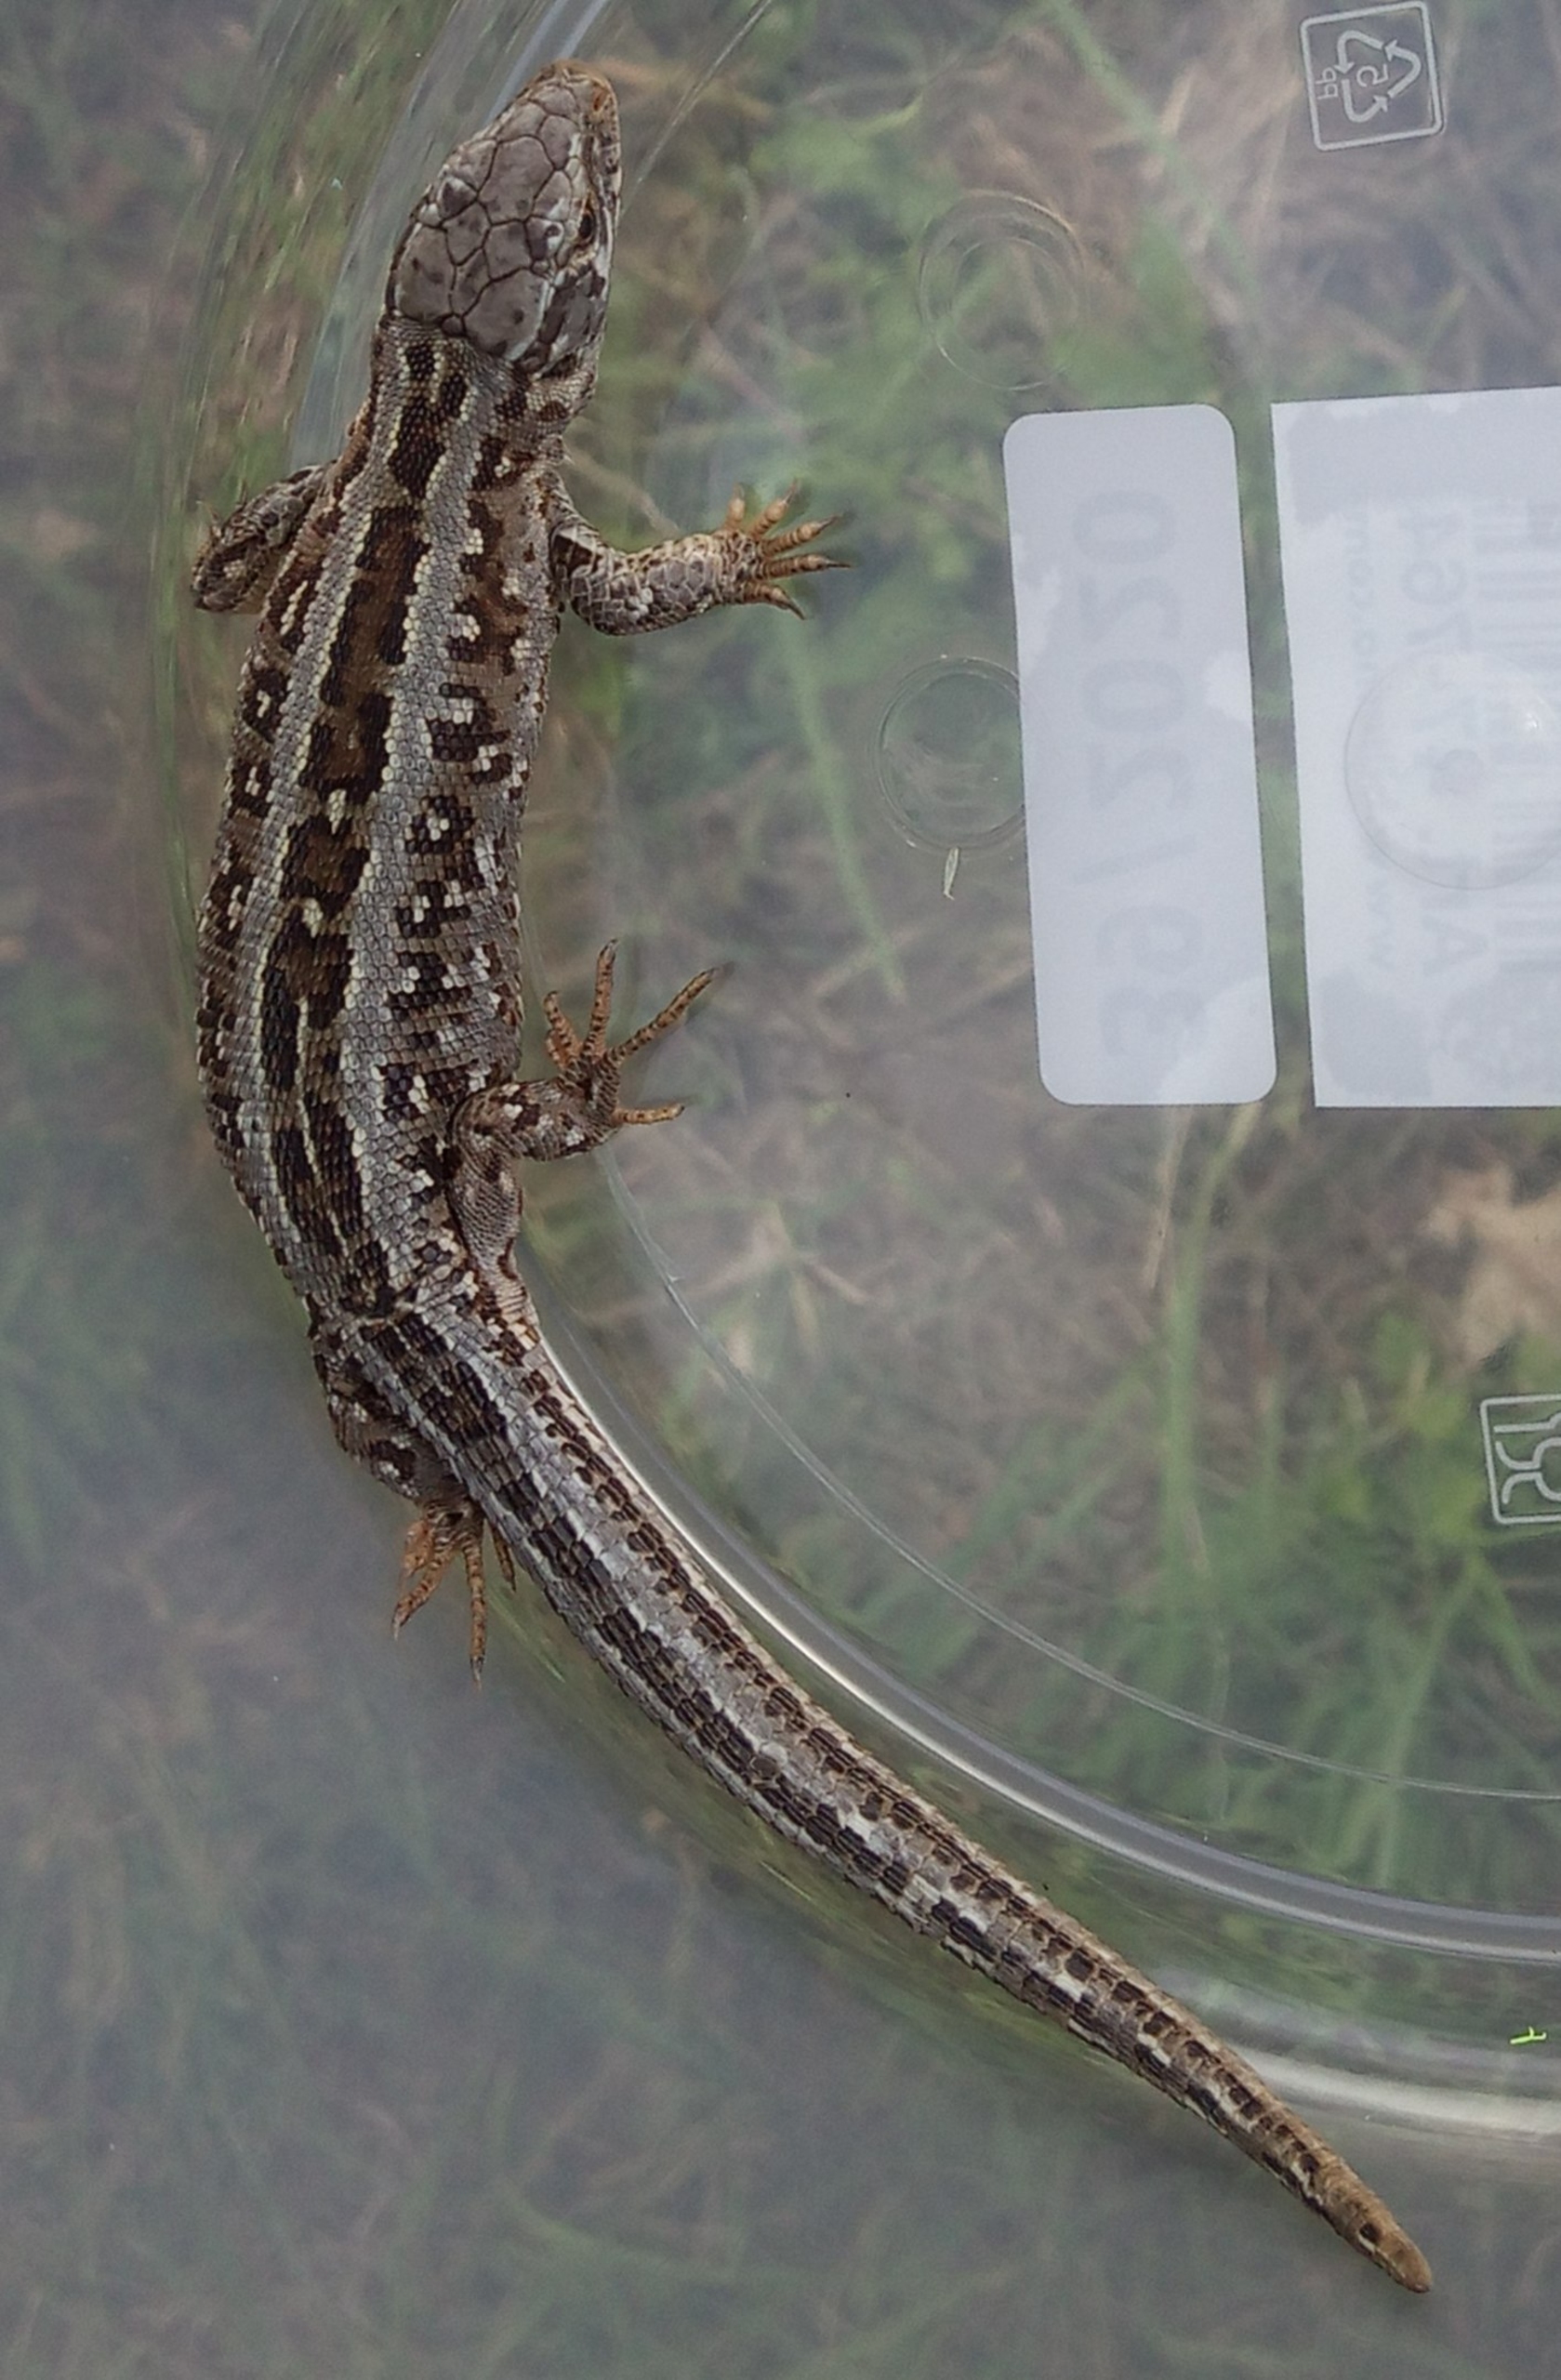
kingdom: Animalia
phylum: Chordata
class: Squamata
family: Lacertidae
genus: Lacerta
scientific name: Lacerta agilis
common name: Markfirben
